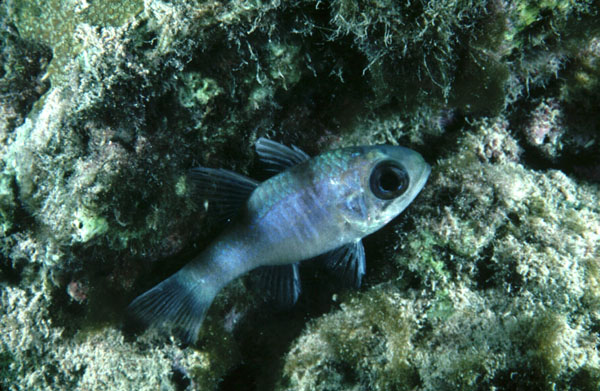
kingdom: Animalia
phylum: Chordata
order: Perciformes
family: Apogonidae
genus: Nectamia
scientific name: Nectamia bandanensis
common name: Bigeye cardinalfish
